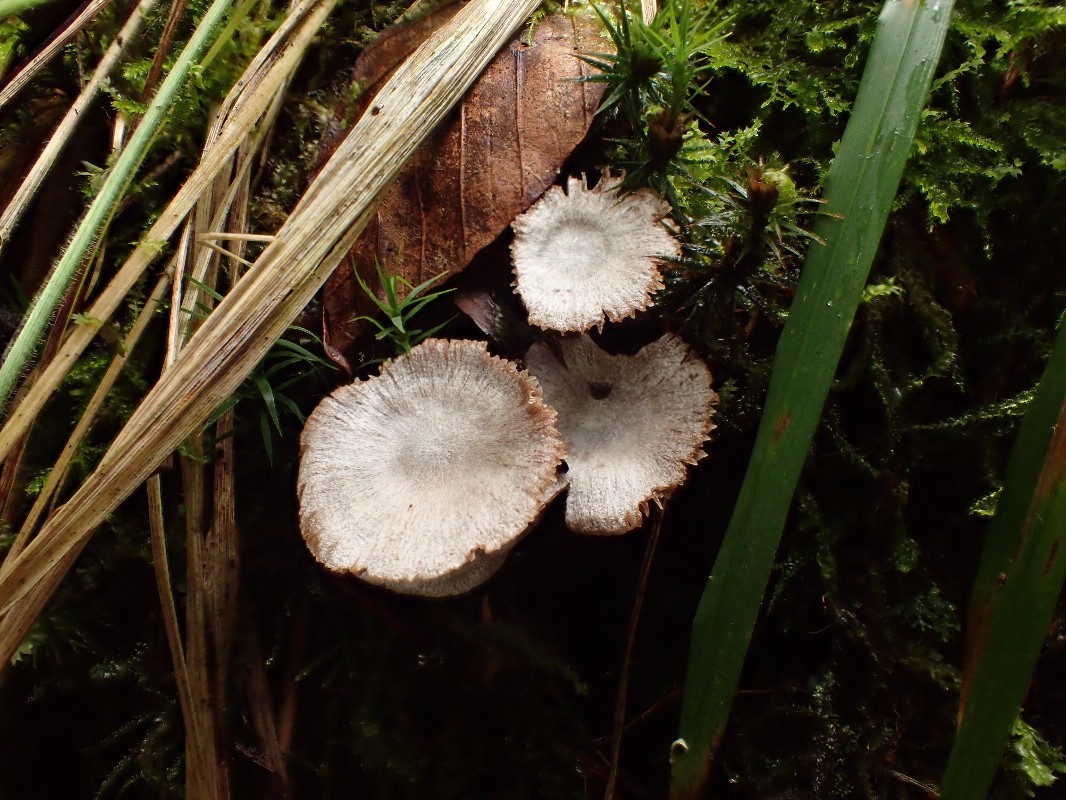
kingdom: Fungi
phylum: Basidiomycota
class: Agaricomycetes
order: Agaricales
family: Cortinariaceae
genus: Cortinarius
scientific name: Cortinarius
